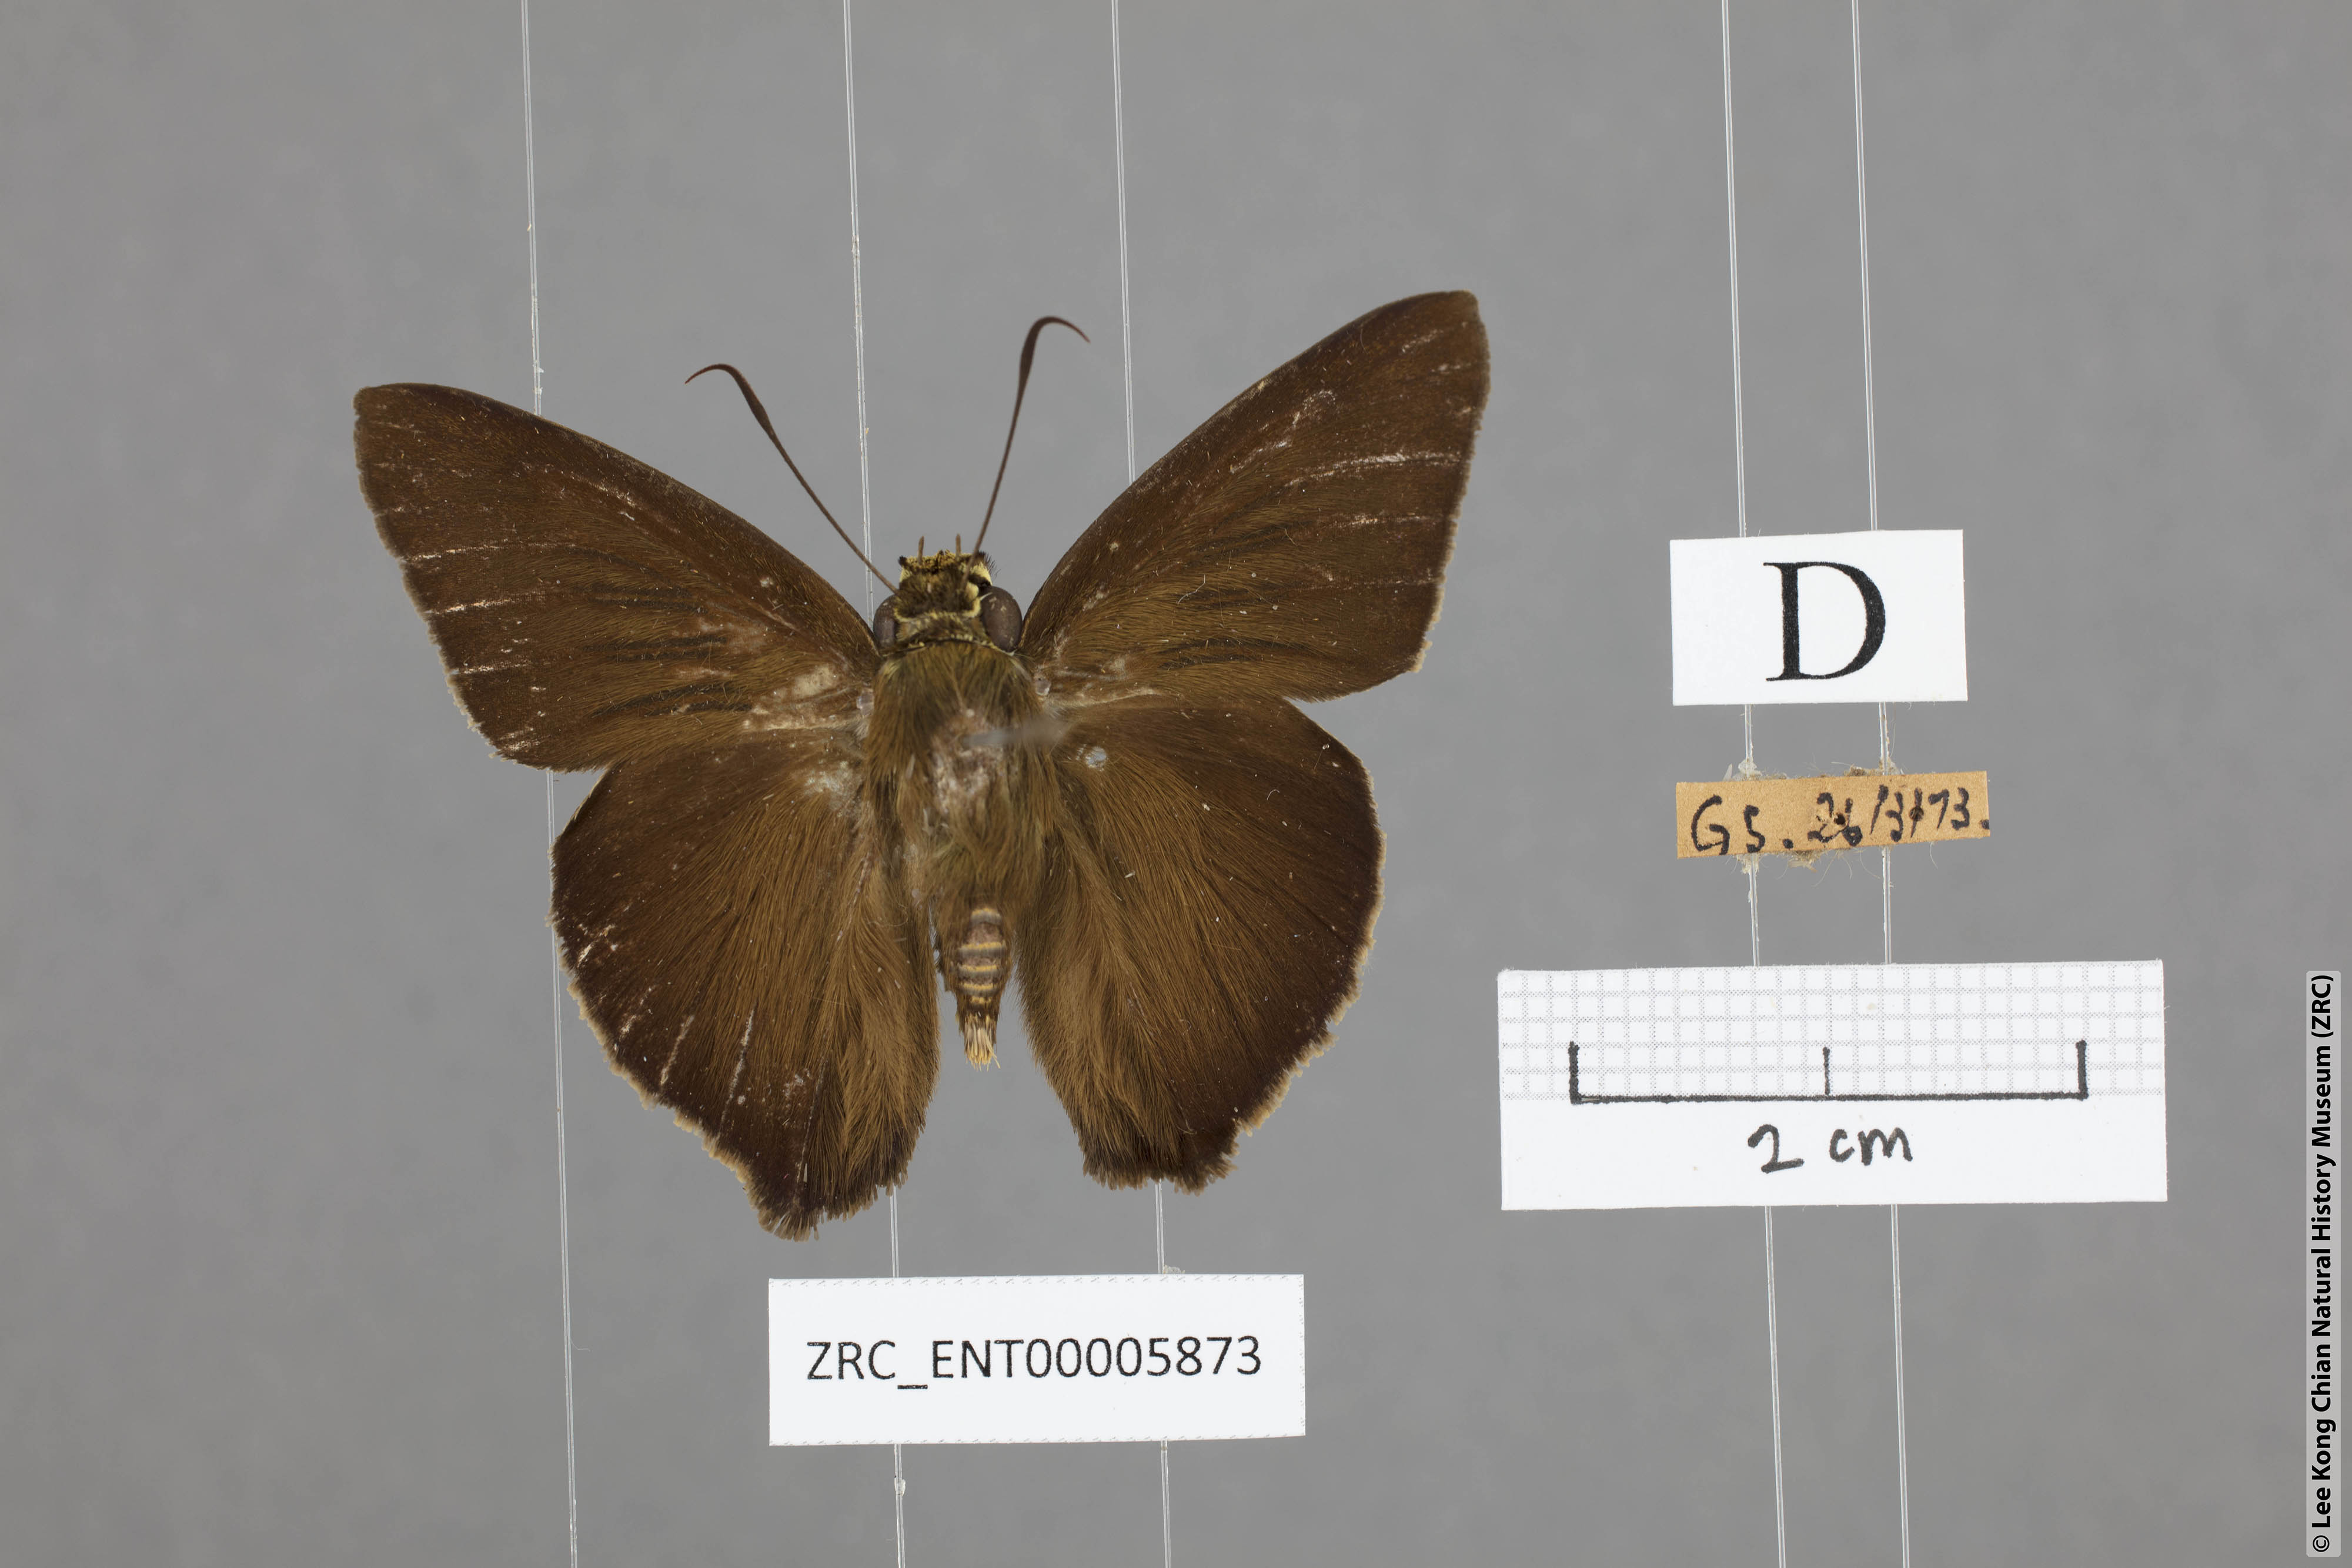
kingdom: Animalia
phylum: Arthropoda
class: Insecta
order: Lepidoptera
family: Hesperiidae
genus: Hasora
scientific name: Hasora leucospila
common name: Violet awl
